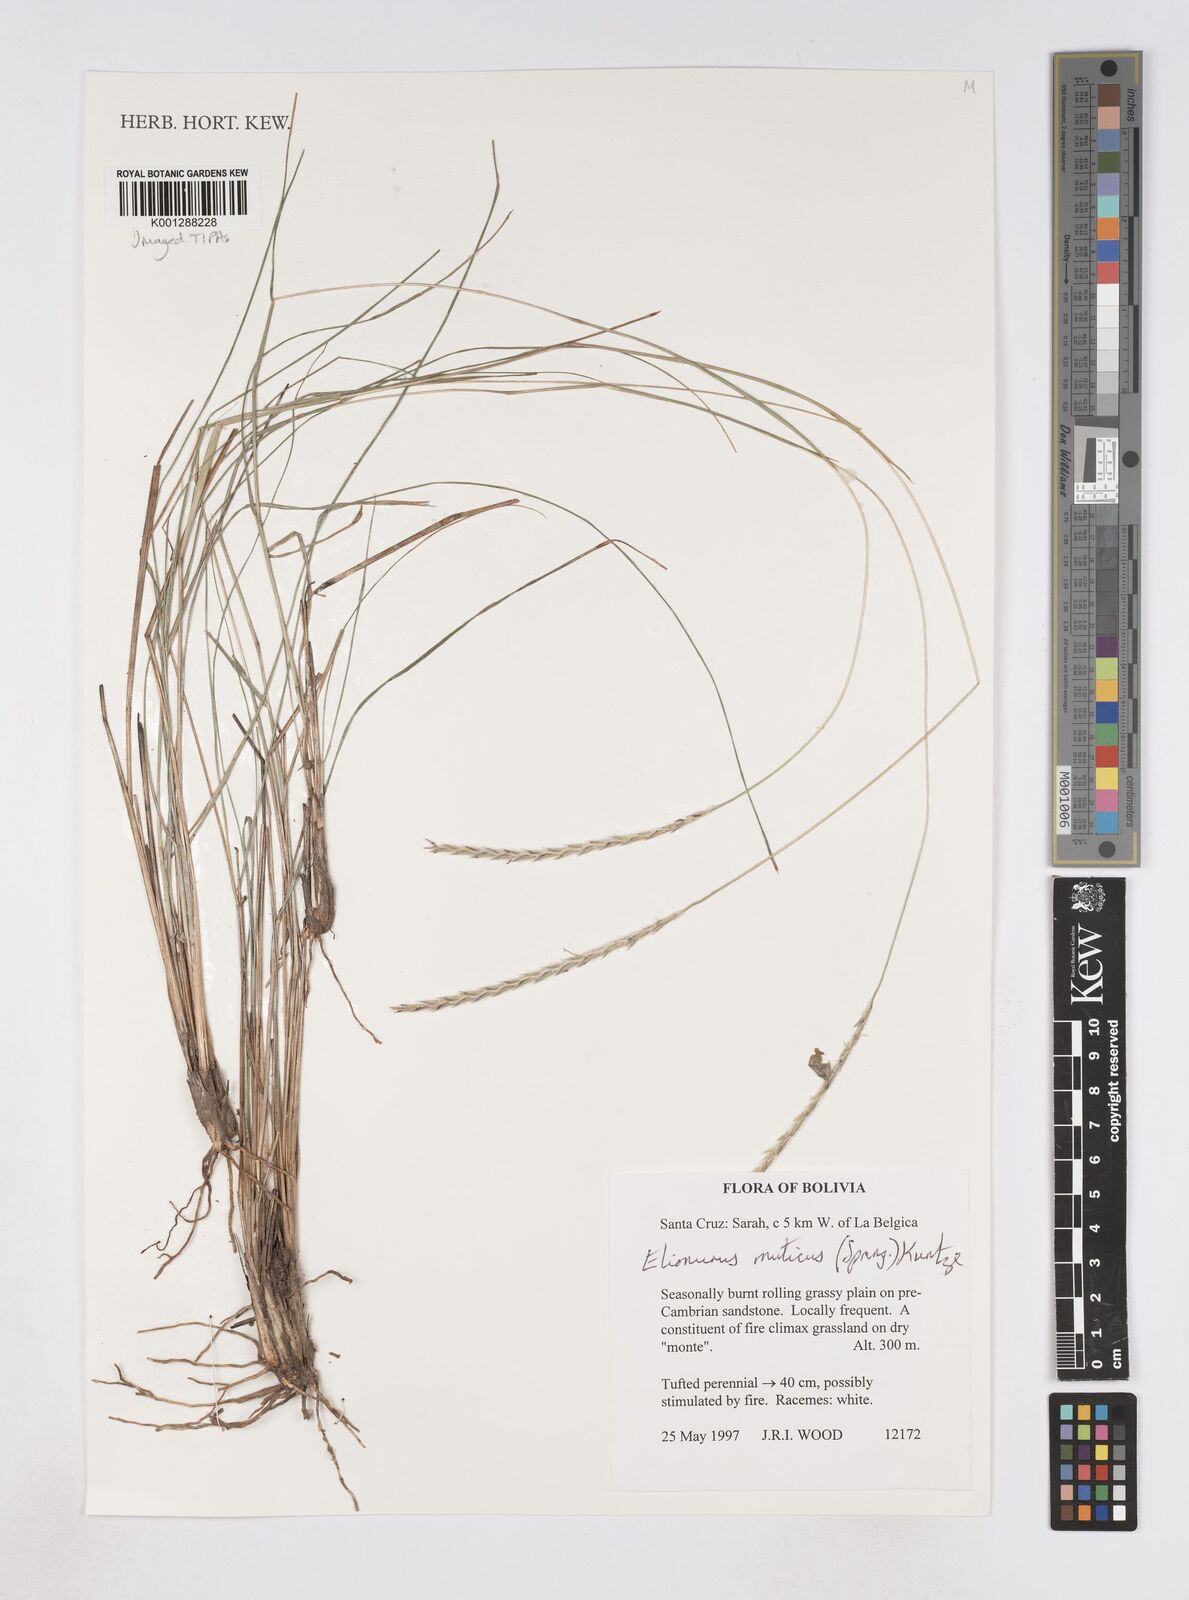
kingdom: Plantae
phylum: Tracheophyta
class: Liliopsida
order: Poales
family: Poaceae
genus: Elionurus
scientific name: Elionurus muticus
